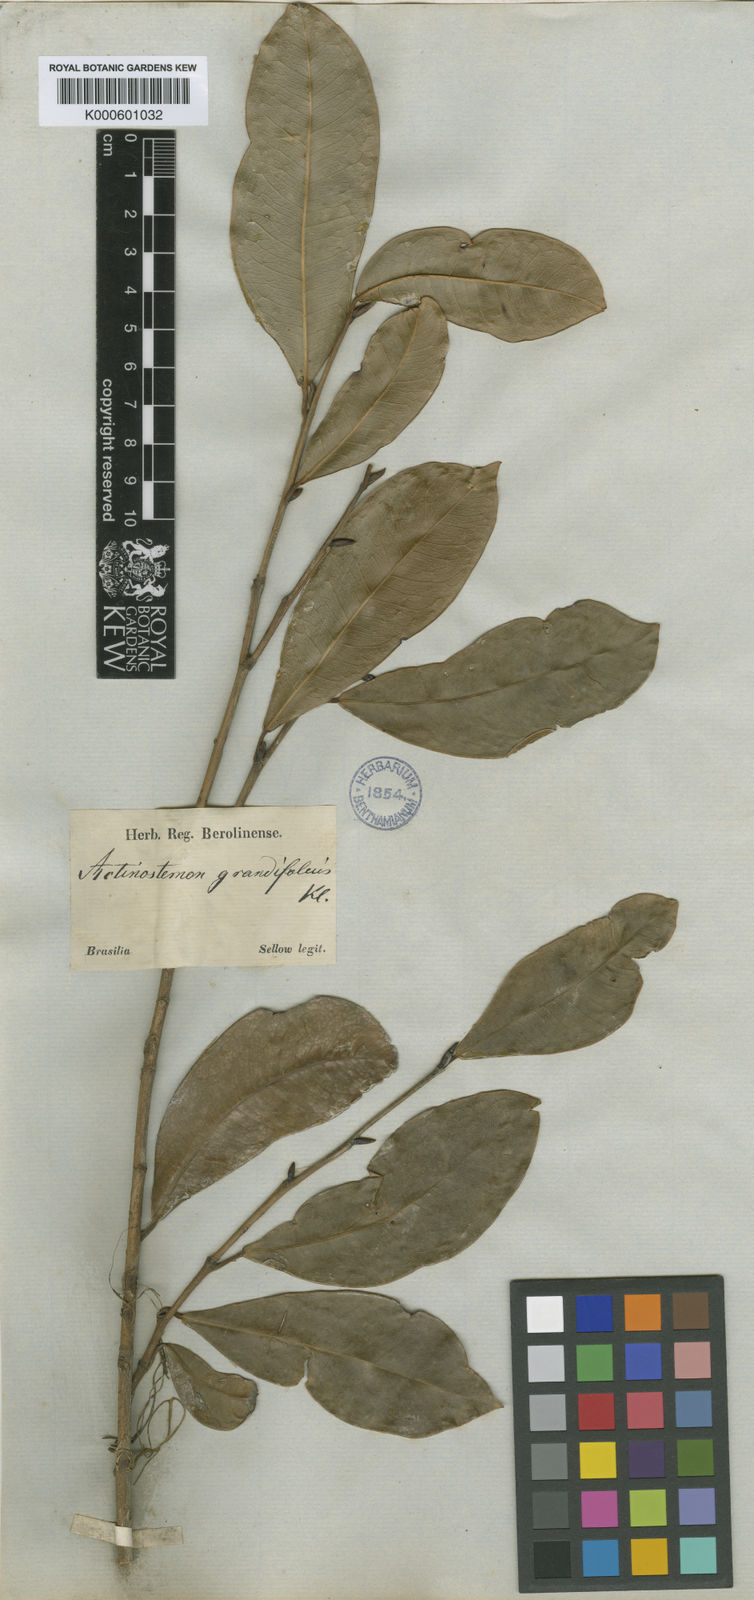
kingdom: Plantae
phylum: Tracheophyta
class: Magnoliopsida
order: Malpighiales
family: Euphorbiaceae
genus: Actinostemon
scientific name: Actinostemon
